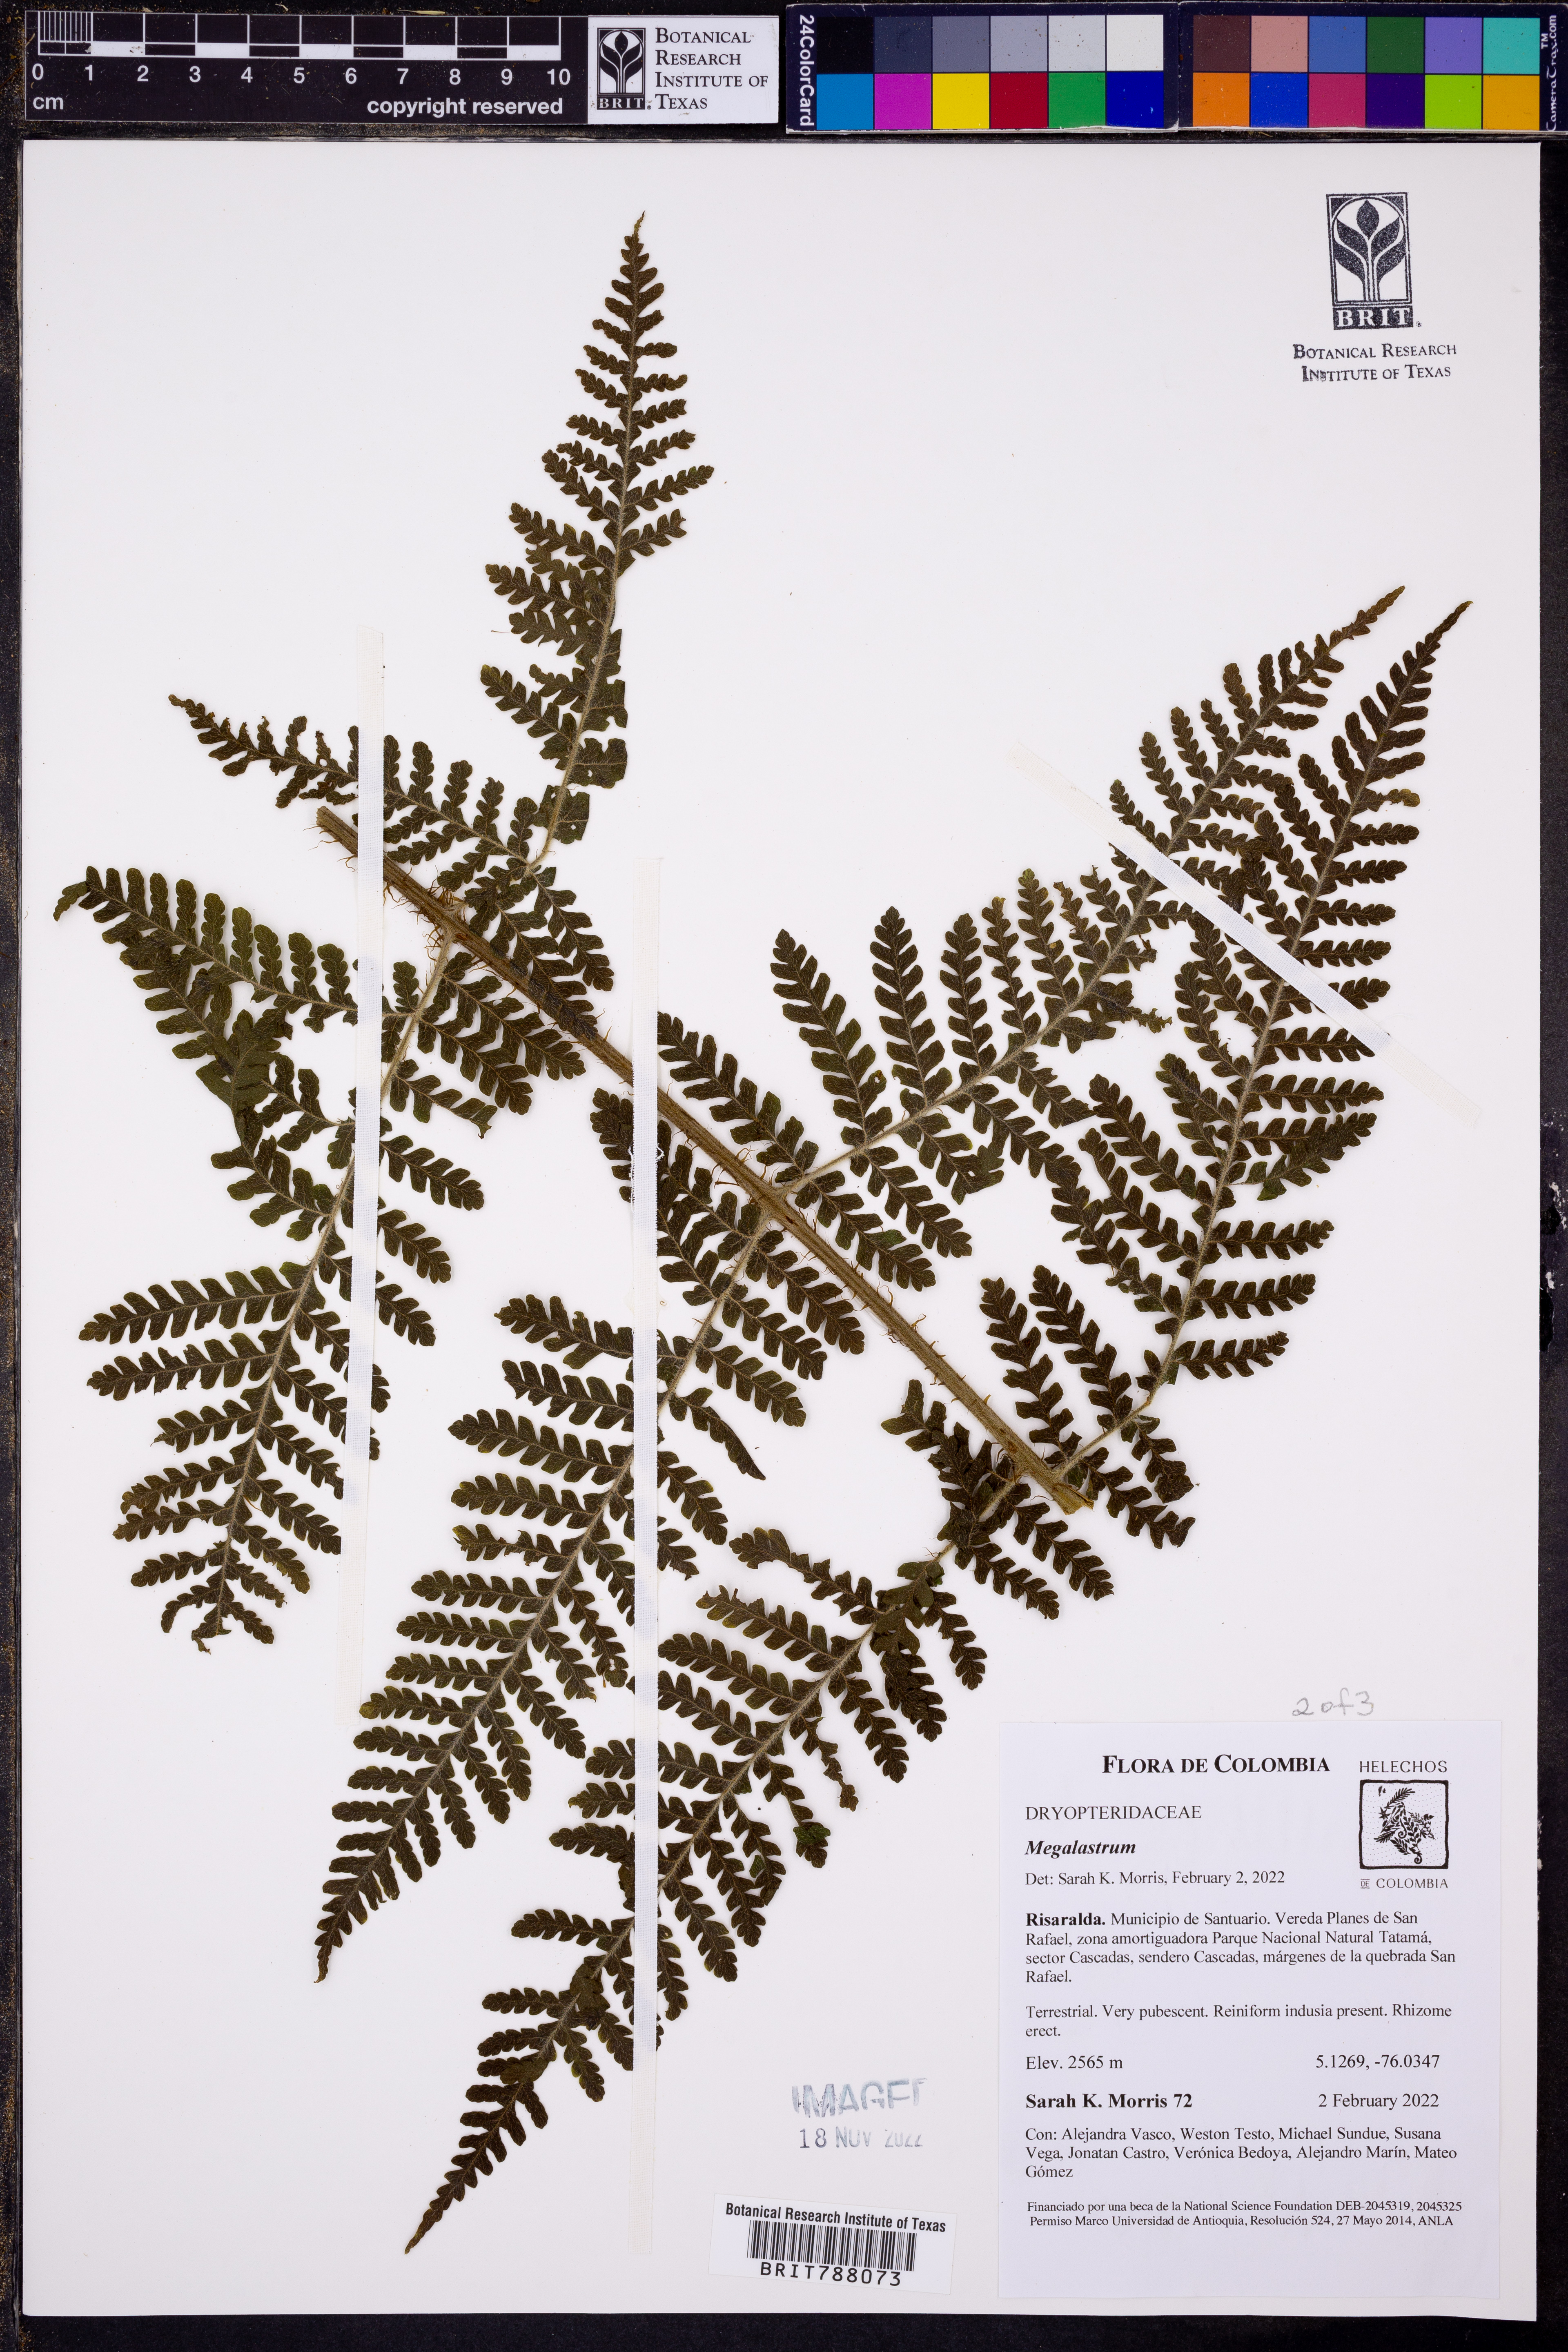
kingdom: Plantae
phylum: Tracheophyta
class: Polypodiopsida
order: Polypodiales
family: Dryopteridaceae
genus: Megalastrum
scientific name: Megalastrum
